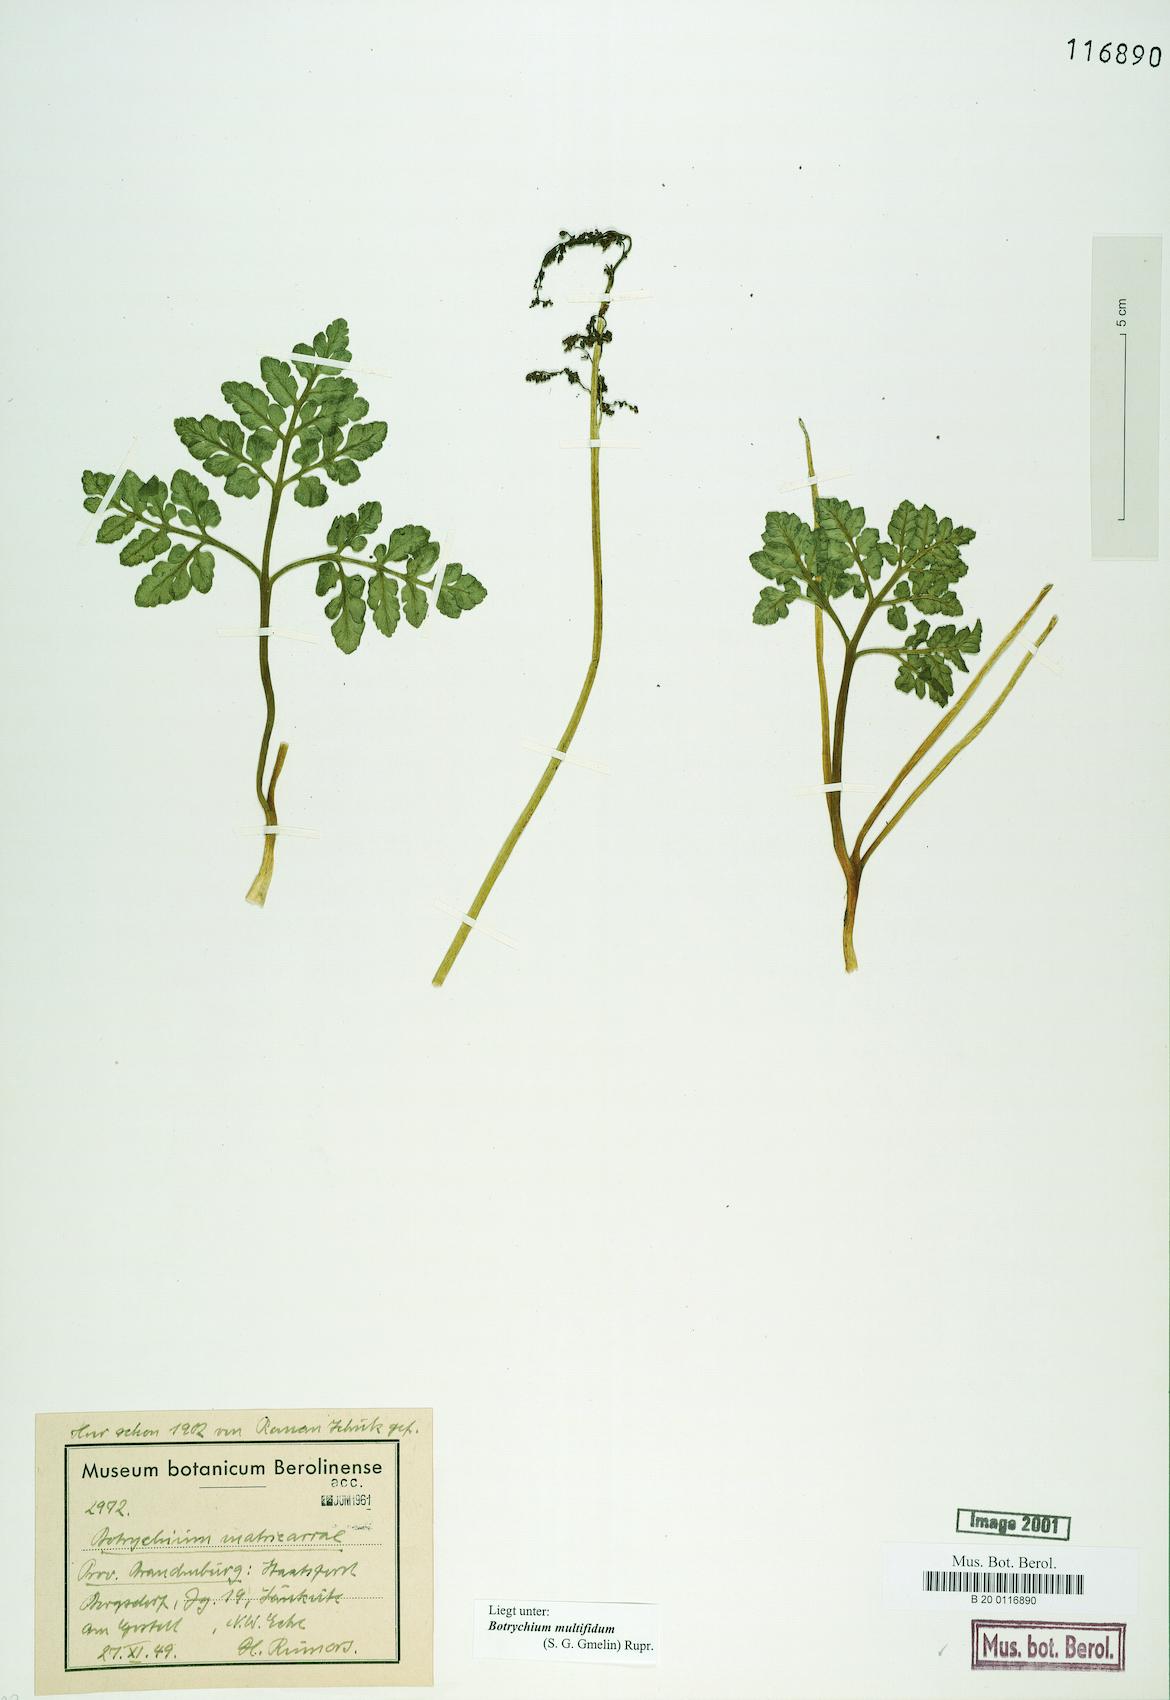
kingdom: Plantae
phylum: Tracheophyta
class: Polypodiopsida
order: Ophioglossales
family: Ophioglossaceae
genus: Sceptridium
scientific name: Sceptridium multifidum
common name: Leathery grape fern
